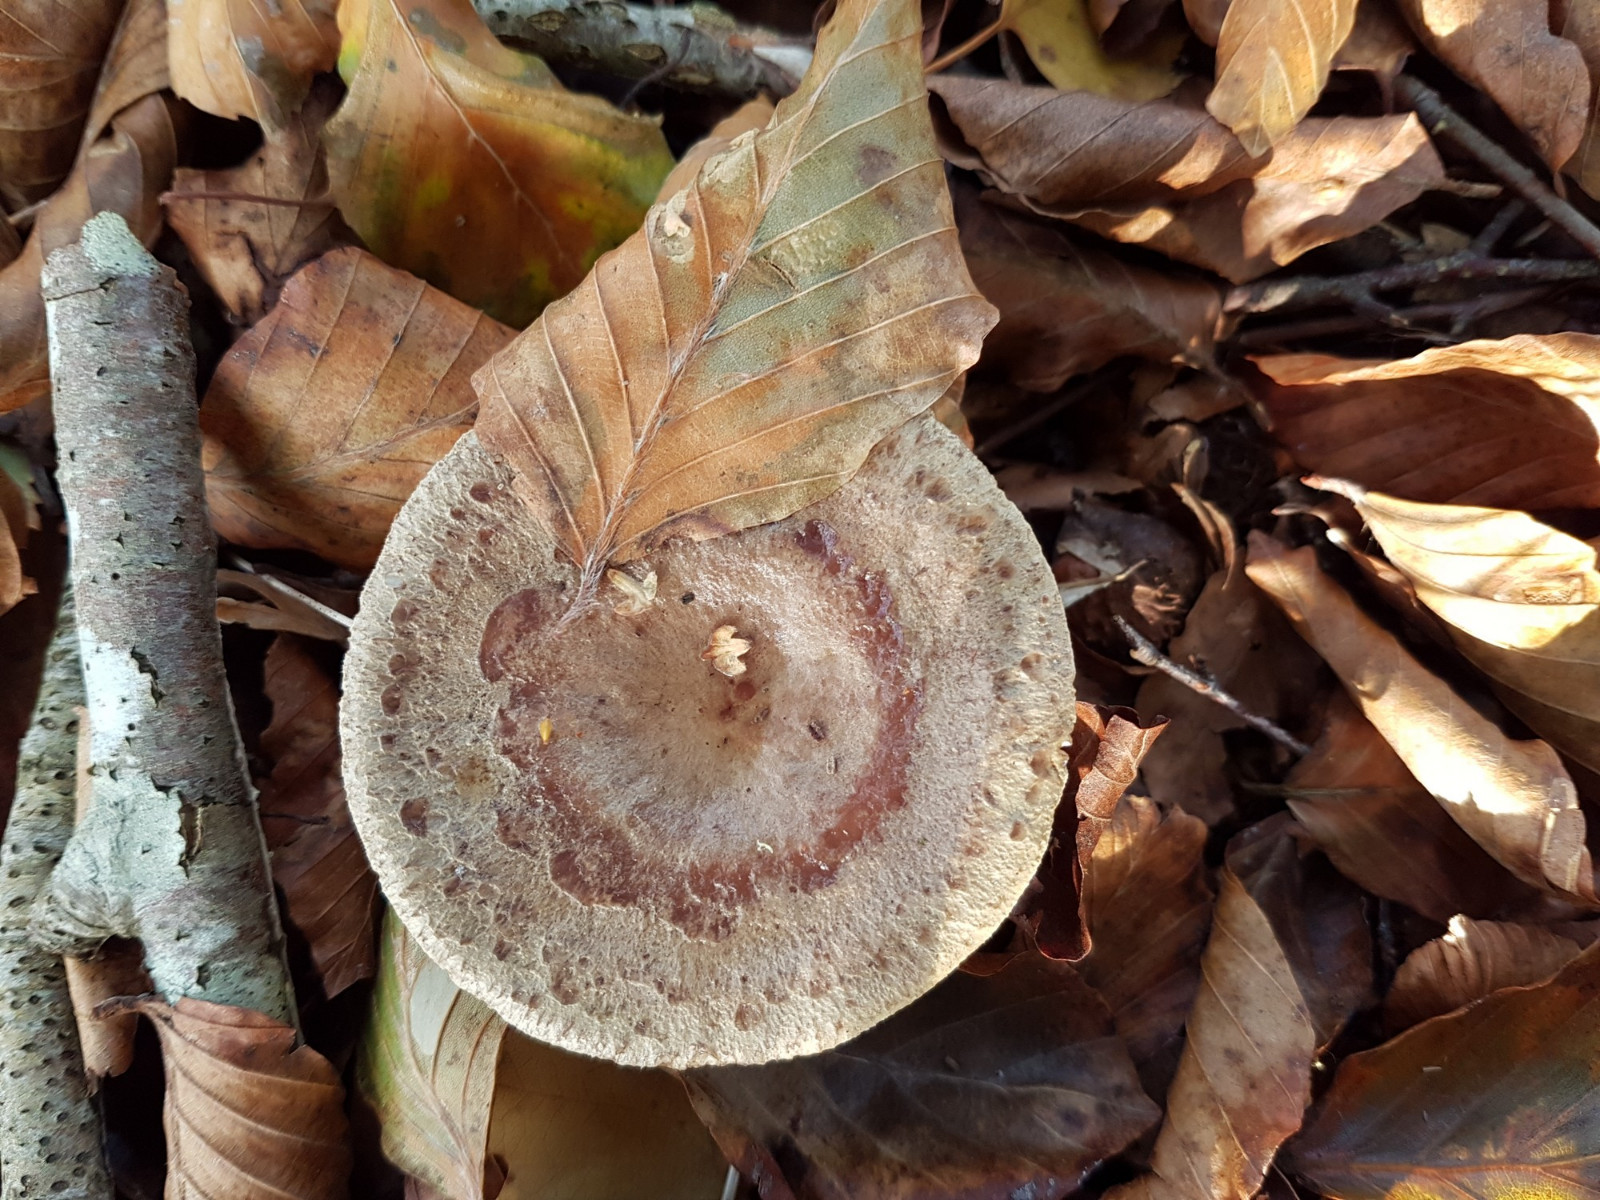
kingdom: Fungi
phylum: Basidiomycota
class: Agaricomycetes
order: Russulales
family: Russulaceae
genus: Lactarius
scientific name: Lactarius blennius
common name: dråbeplettet mælkehat
